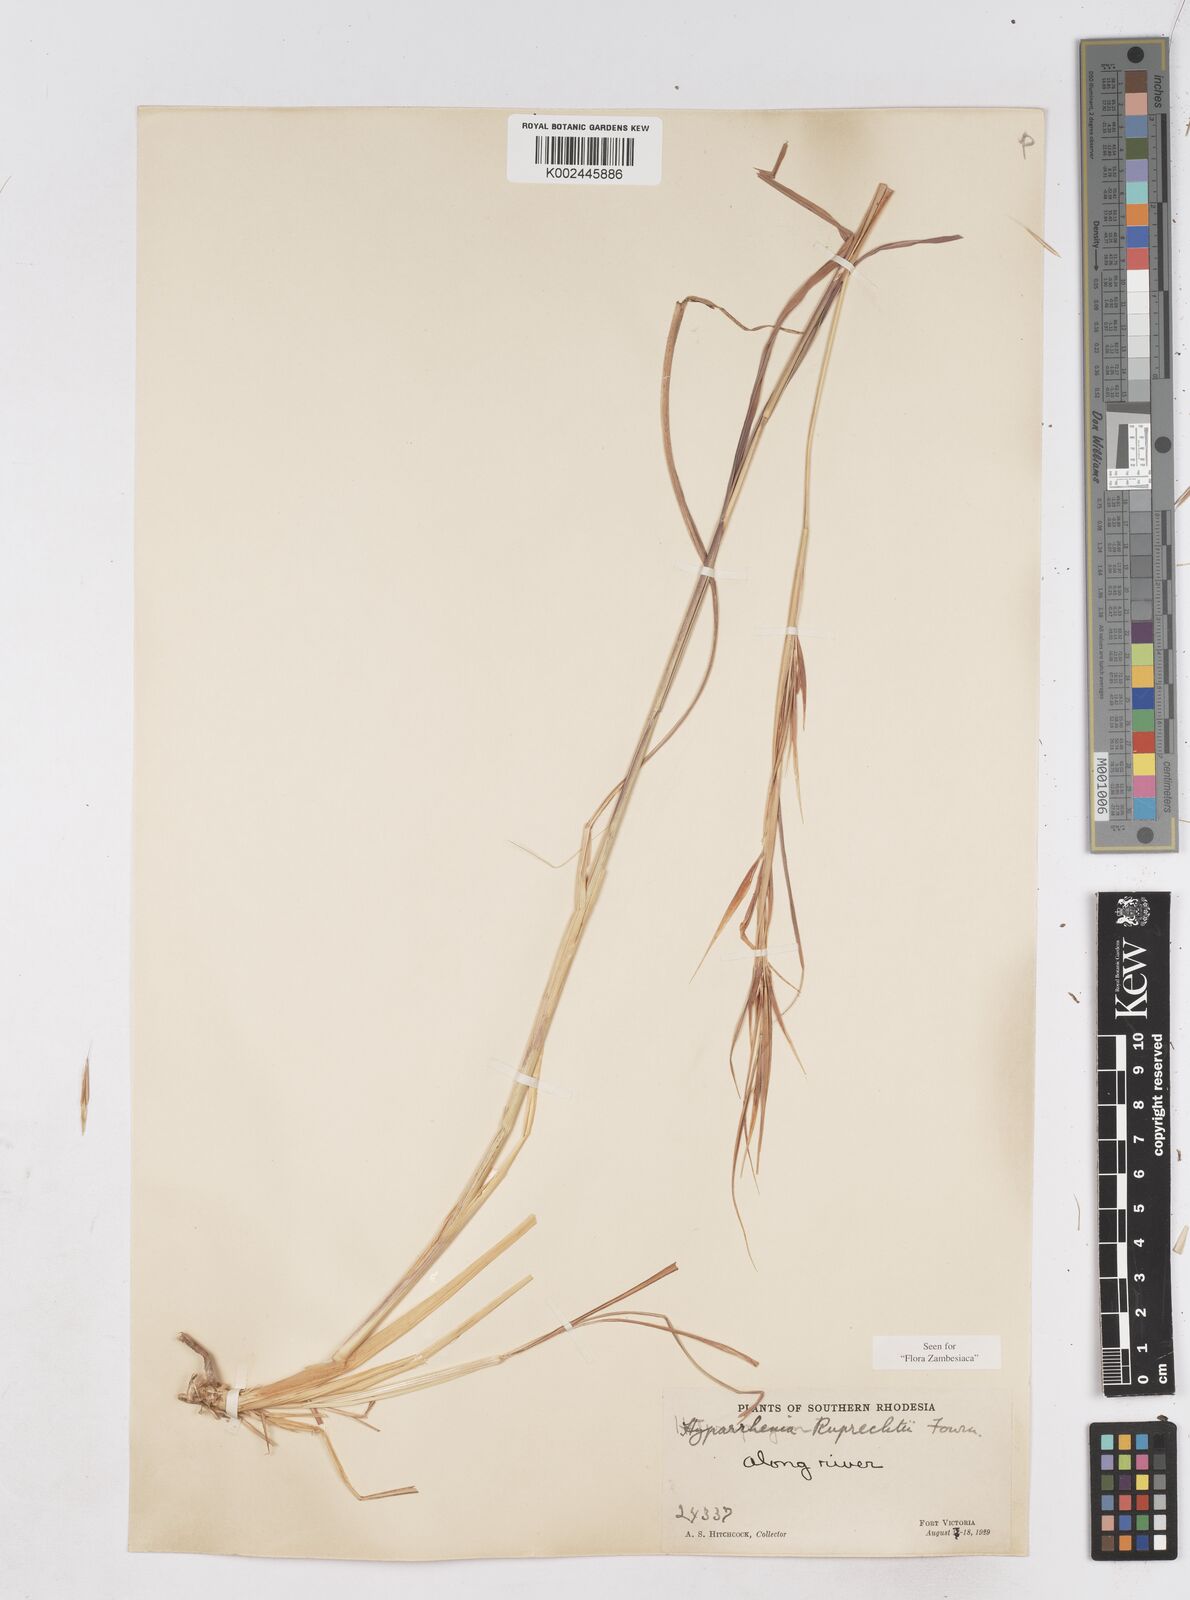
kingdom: Plantae
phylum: Tracheophyta
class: Liliopsida
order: Poales
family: Poaceae
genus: Hyperthelia
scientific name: Hyperthelia dissoluta
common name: Yellow thatching grass
